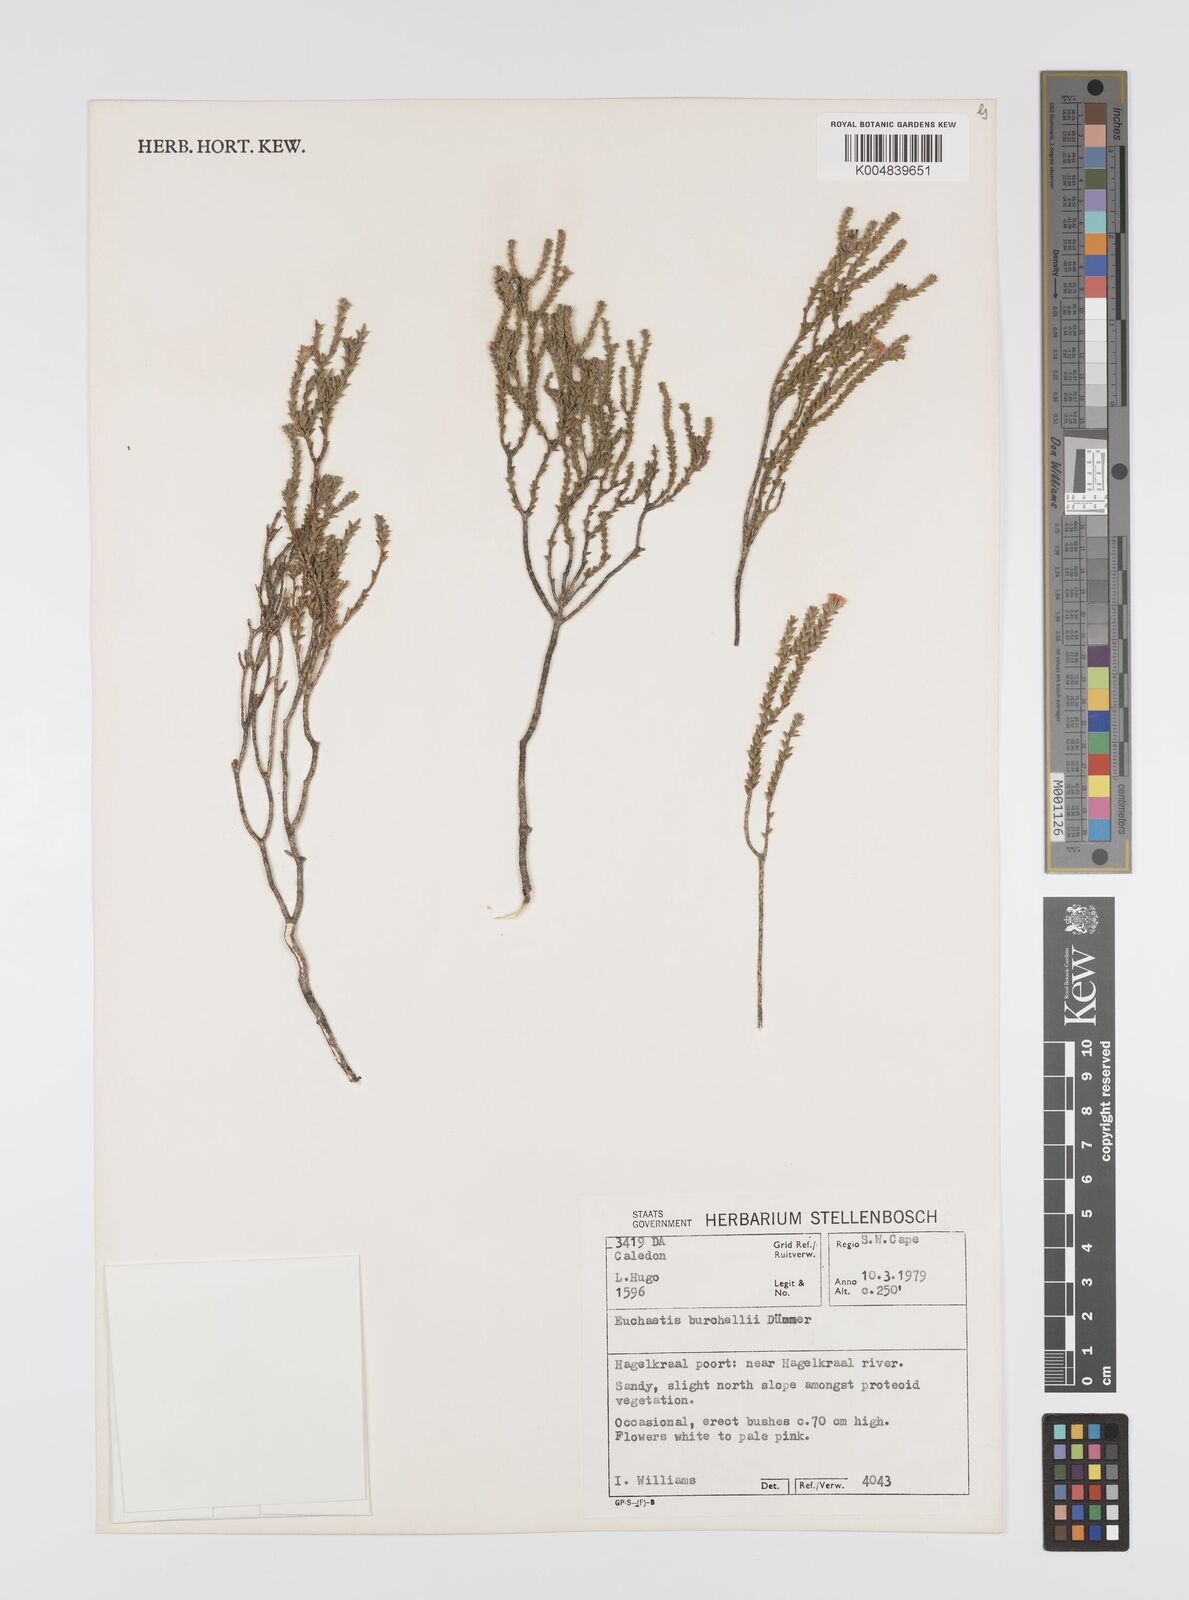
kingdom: Plantae
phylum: Tracheophyta
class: Magnoliopsida
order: Sapindales
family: Rutaceae
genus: Euchaetis
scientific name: Euchaetis burchellii
